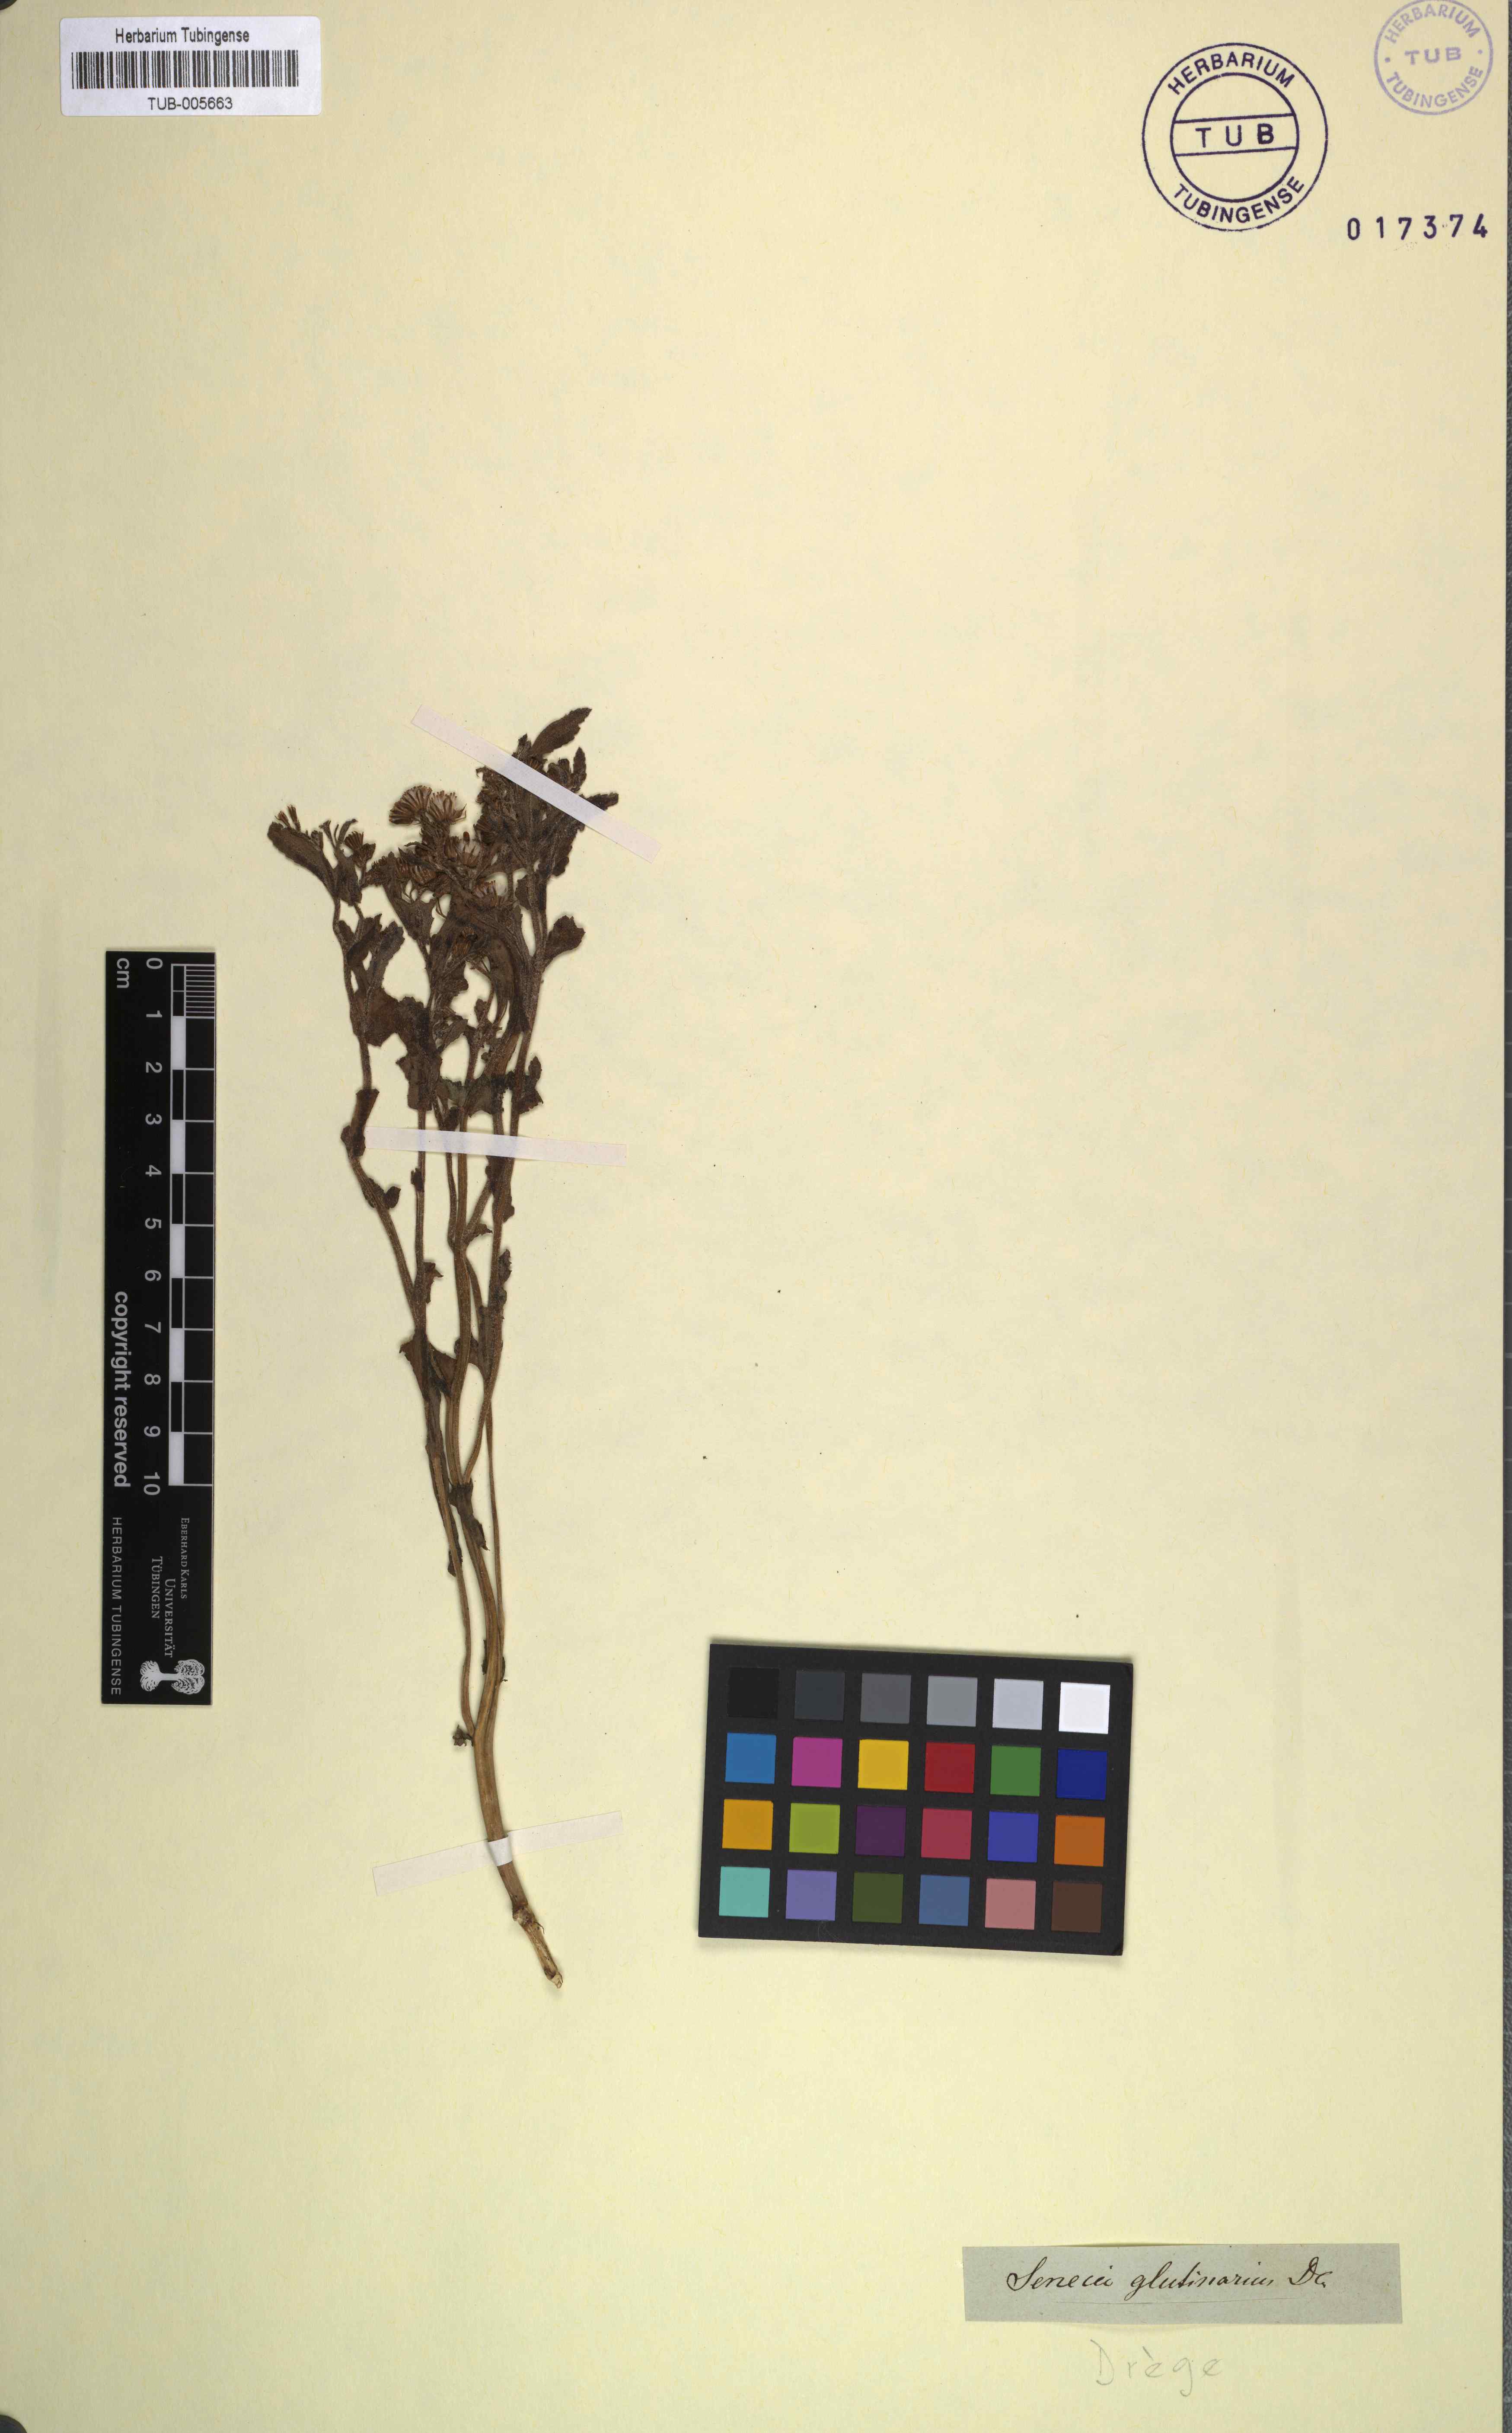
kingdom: Plantae
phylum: Tracheophyta
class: Magnoliopsida
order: Asterales
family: Asteraceae
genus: Senecio
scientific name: Senecio glutinarius
